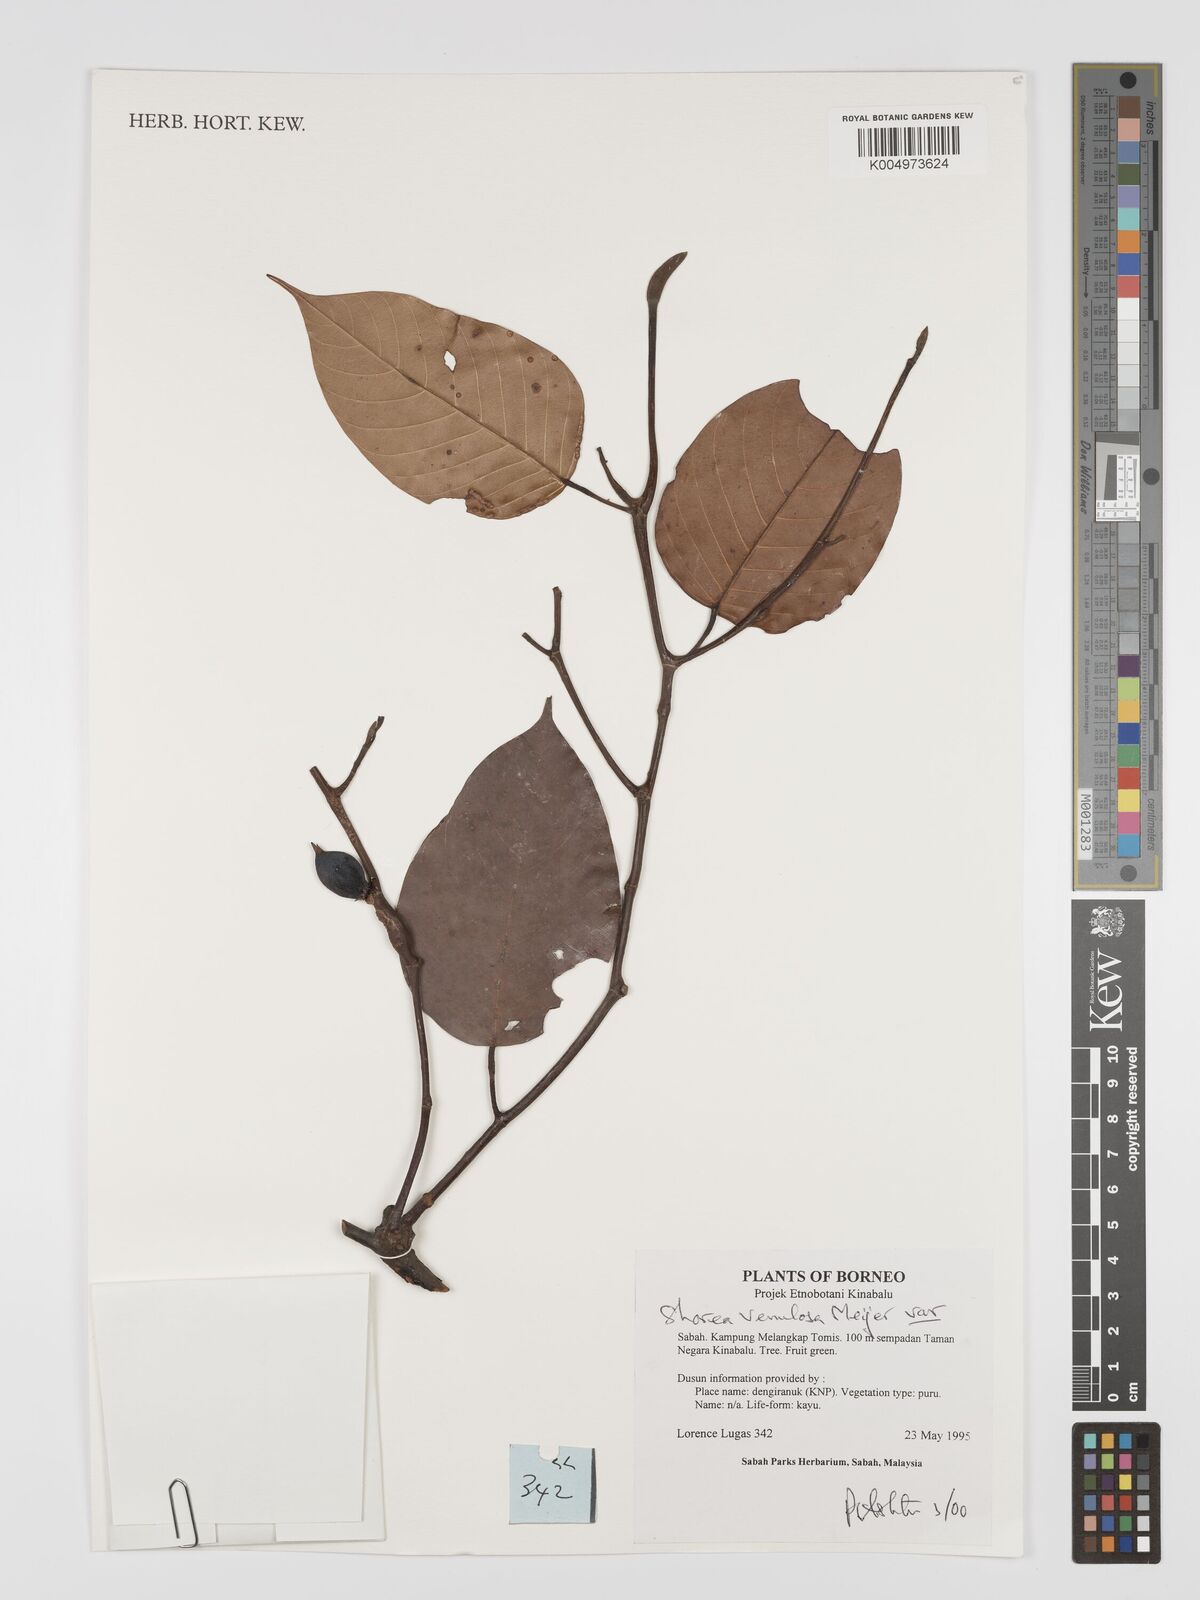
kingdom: Plantae
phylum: Tracheophyta
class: Magnoliopsida
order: Malvales
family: Dipterocarpaceae
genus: Shorea
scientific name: Shorea venulosa
